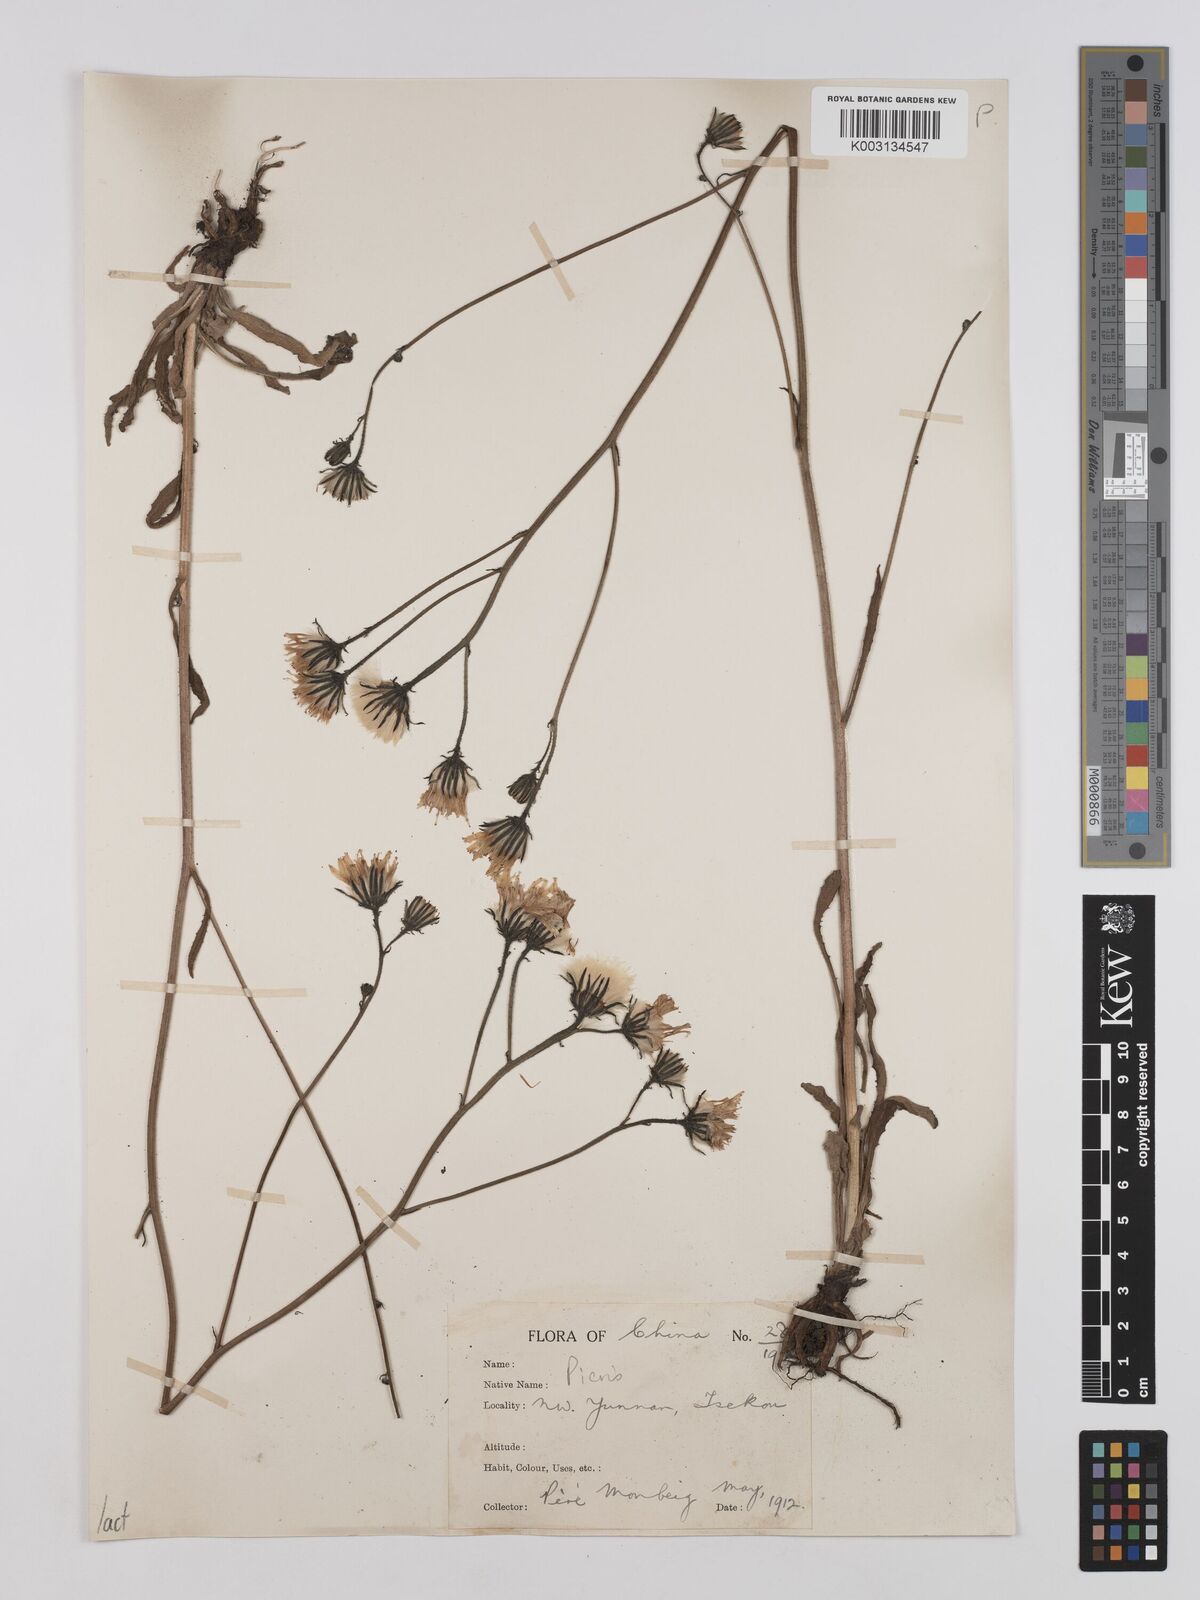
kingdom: Plantae
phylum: Tracheophyta
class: Magnoliopsida
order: Asterales
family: Asteraceae
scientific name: Asteraceae
